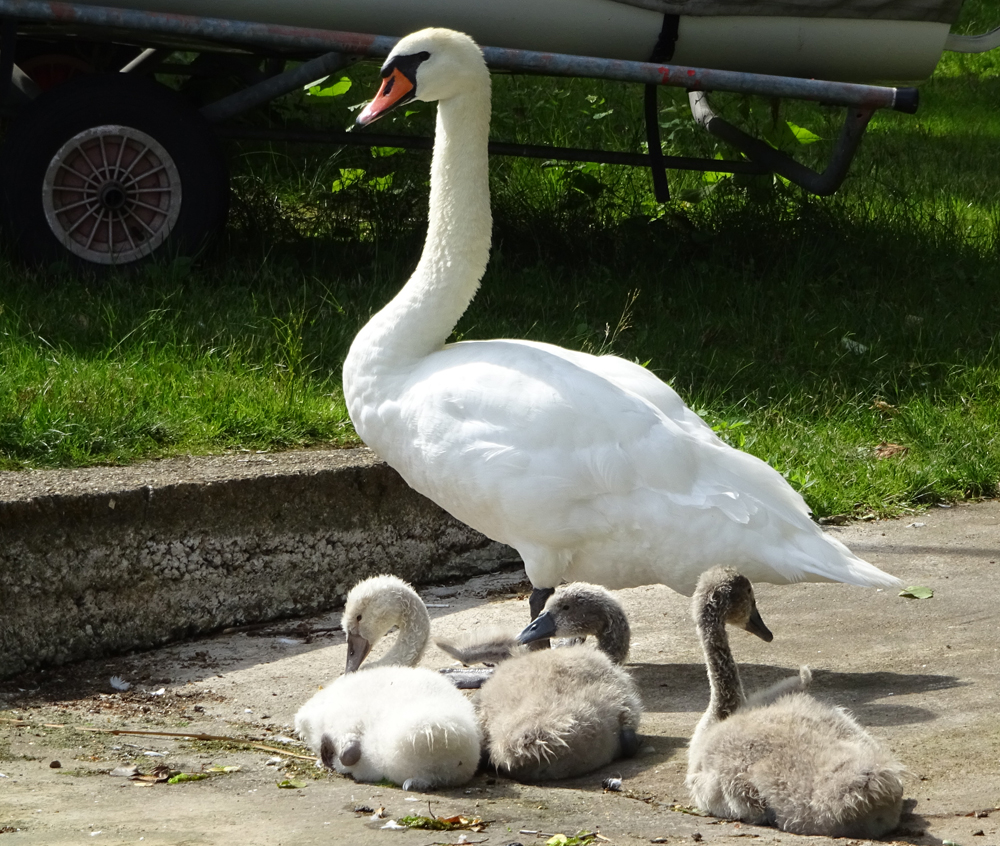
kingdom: Animalia
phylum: Chordata
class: Aves
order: Anseriformes
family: Anatidae
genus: Cygnus
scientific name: Cygnus olor
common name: Mute swan
